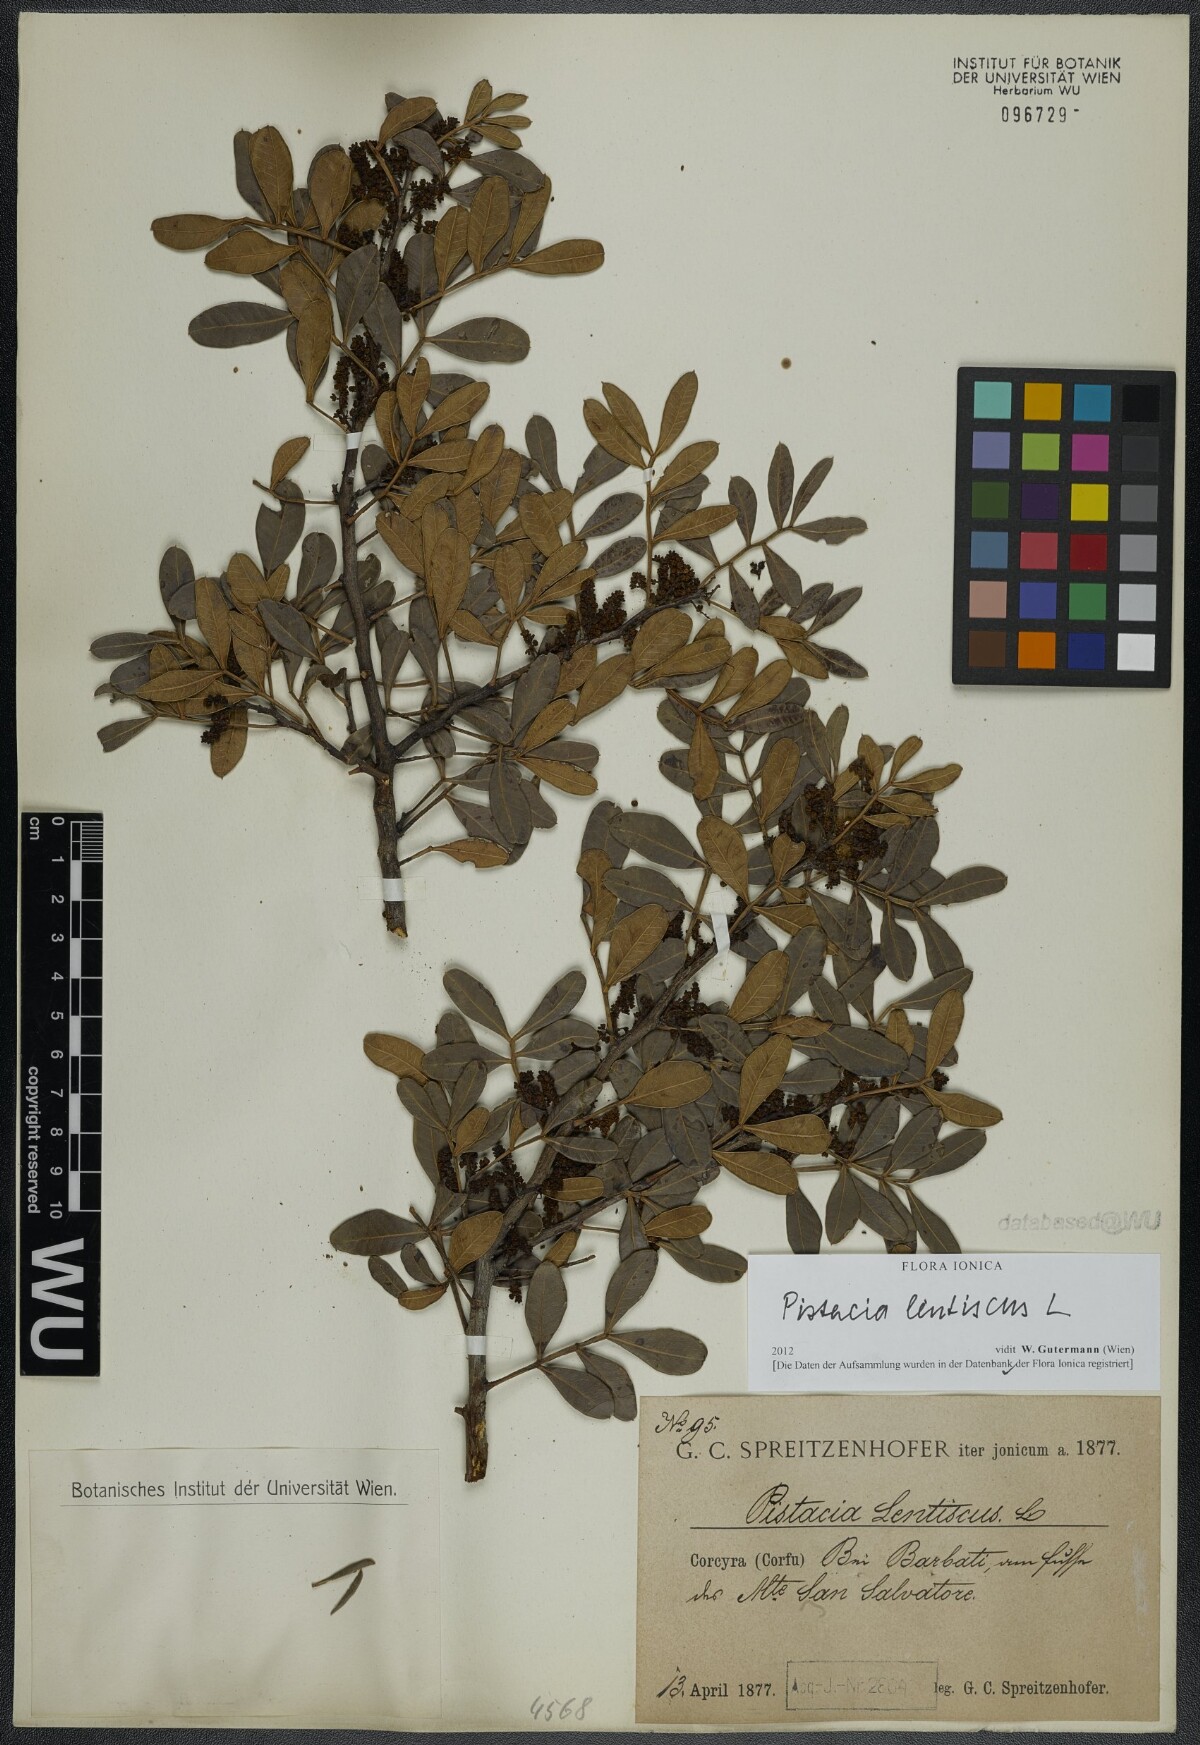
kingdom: Plantae
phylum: Tracheophyta
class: Magnoliopsida
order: Sapindales
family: Anacardiaceae
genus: Pistacia
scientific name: Pistacia lentiscus
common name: Lentisk
